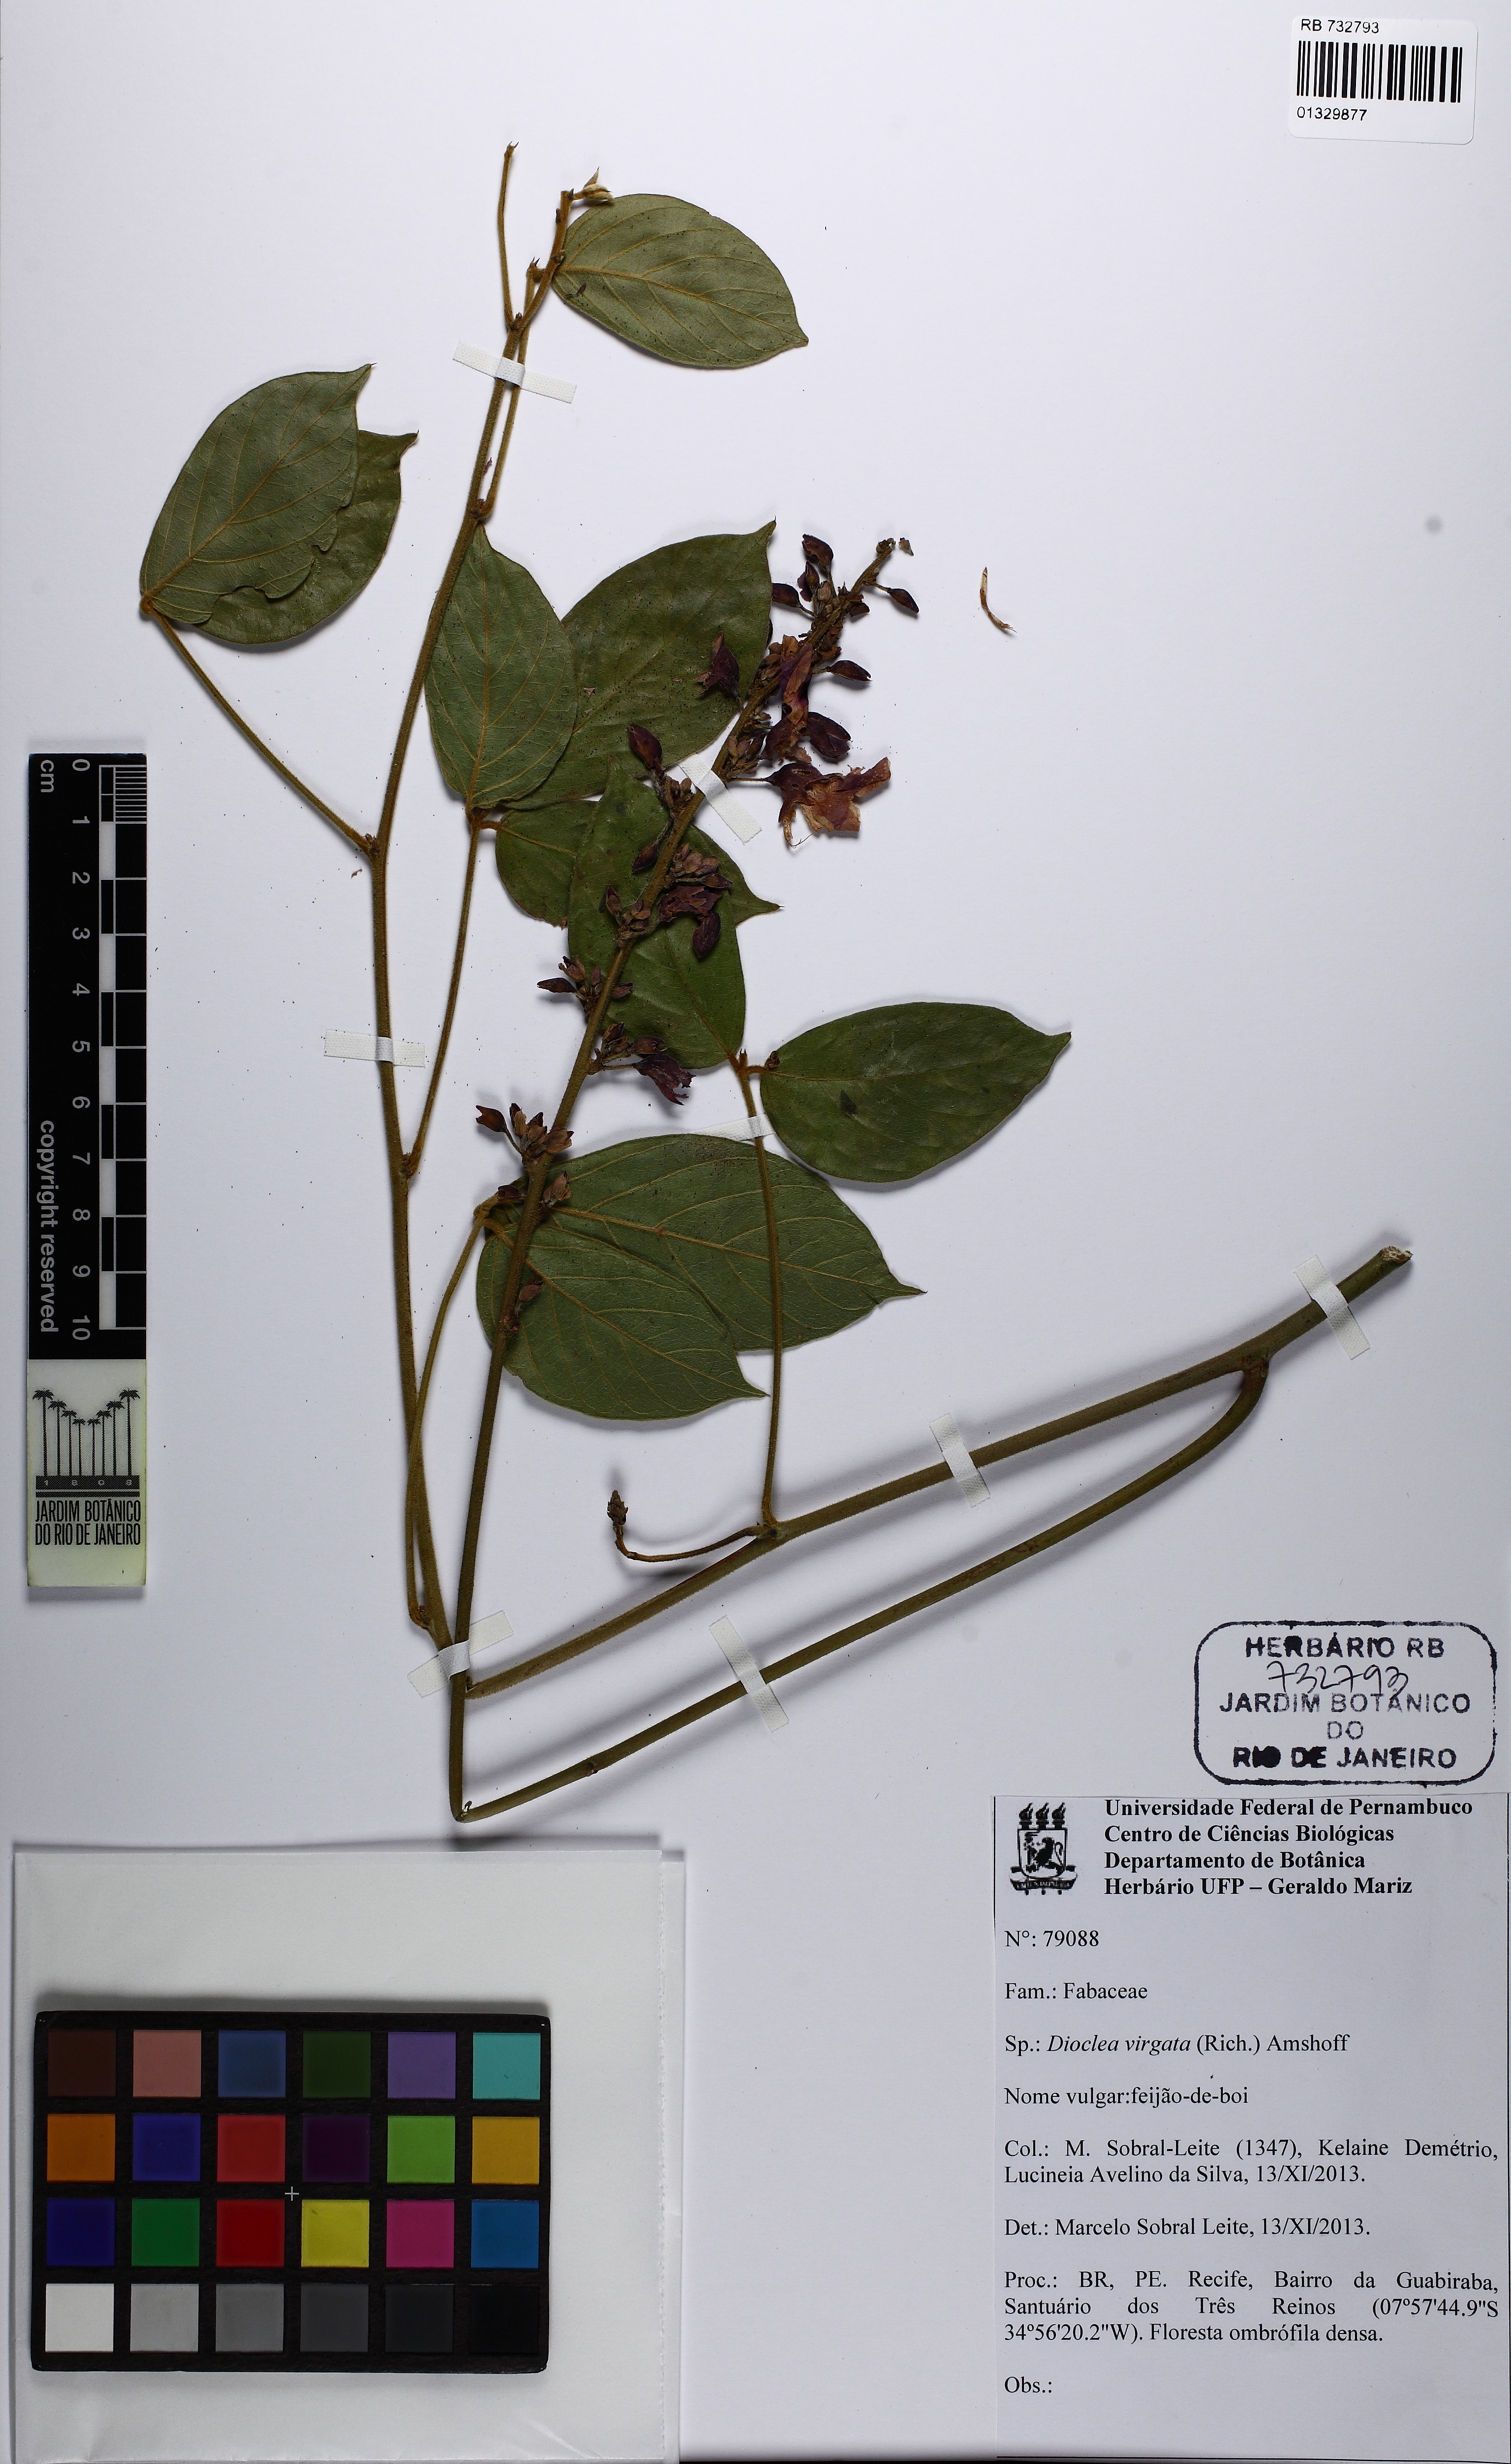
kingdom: Plantae
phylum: Tracheophyta
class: Magnoliopsida
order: Fabales
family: Fabaceae
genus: Dioclea
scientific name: Dioclea virgata
